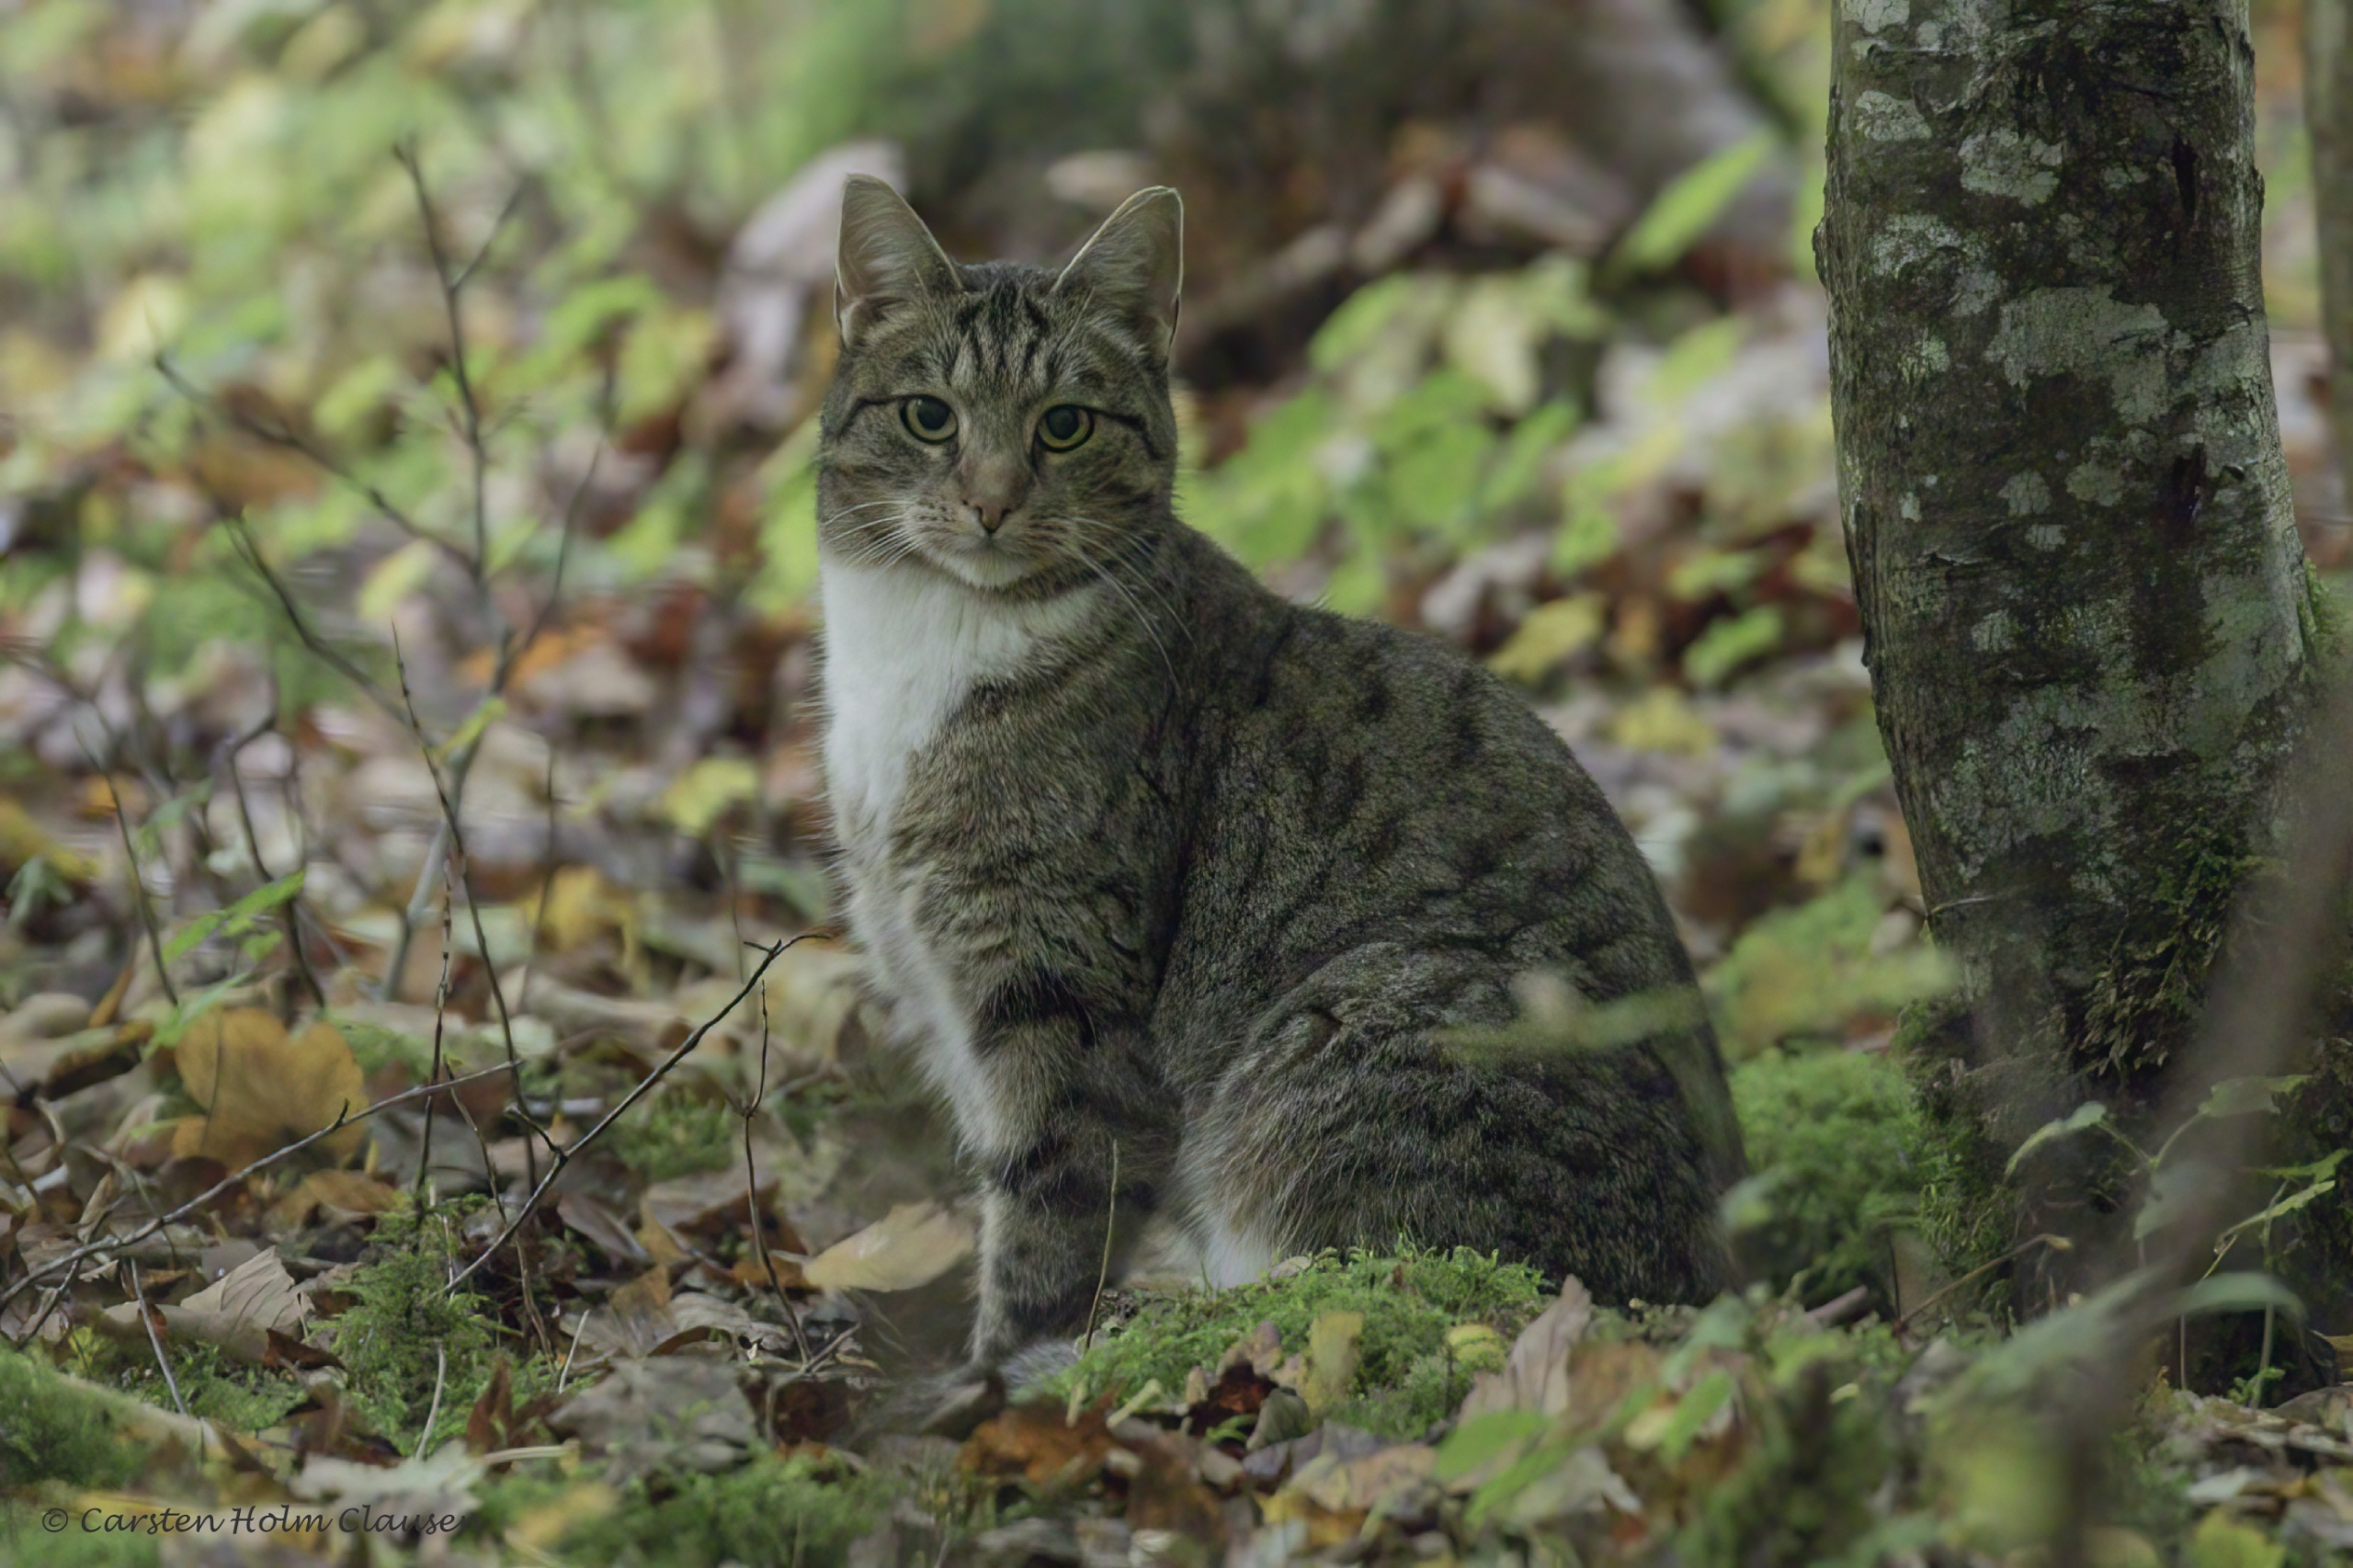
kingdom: Animalia
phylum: Chordata
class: Mammalia
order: Carnivora
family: Felidae
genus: Felis
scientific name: Felis catus
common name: Tamkat
